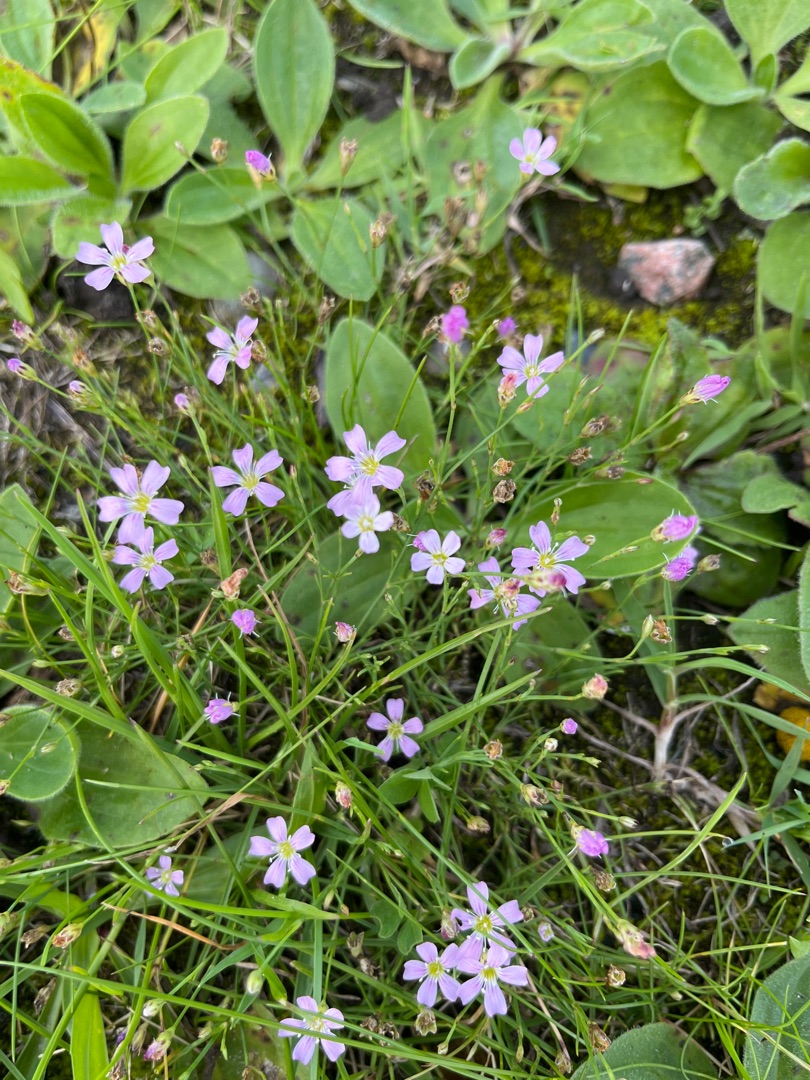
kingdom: Plantae
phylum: Tracheophyta
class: Magnoliopsida
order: Caryophyllales
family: Caryophyllaceae
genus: Petrorhagia
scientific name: Petrorhagia saxifraga
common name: Fjeld-knopnellike
